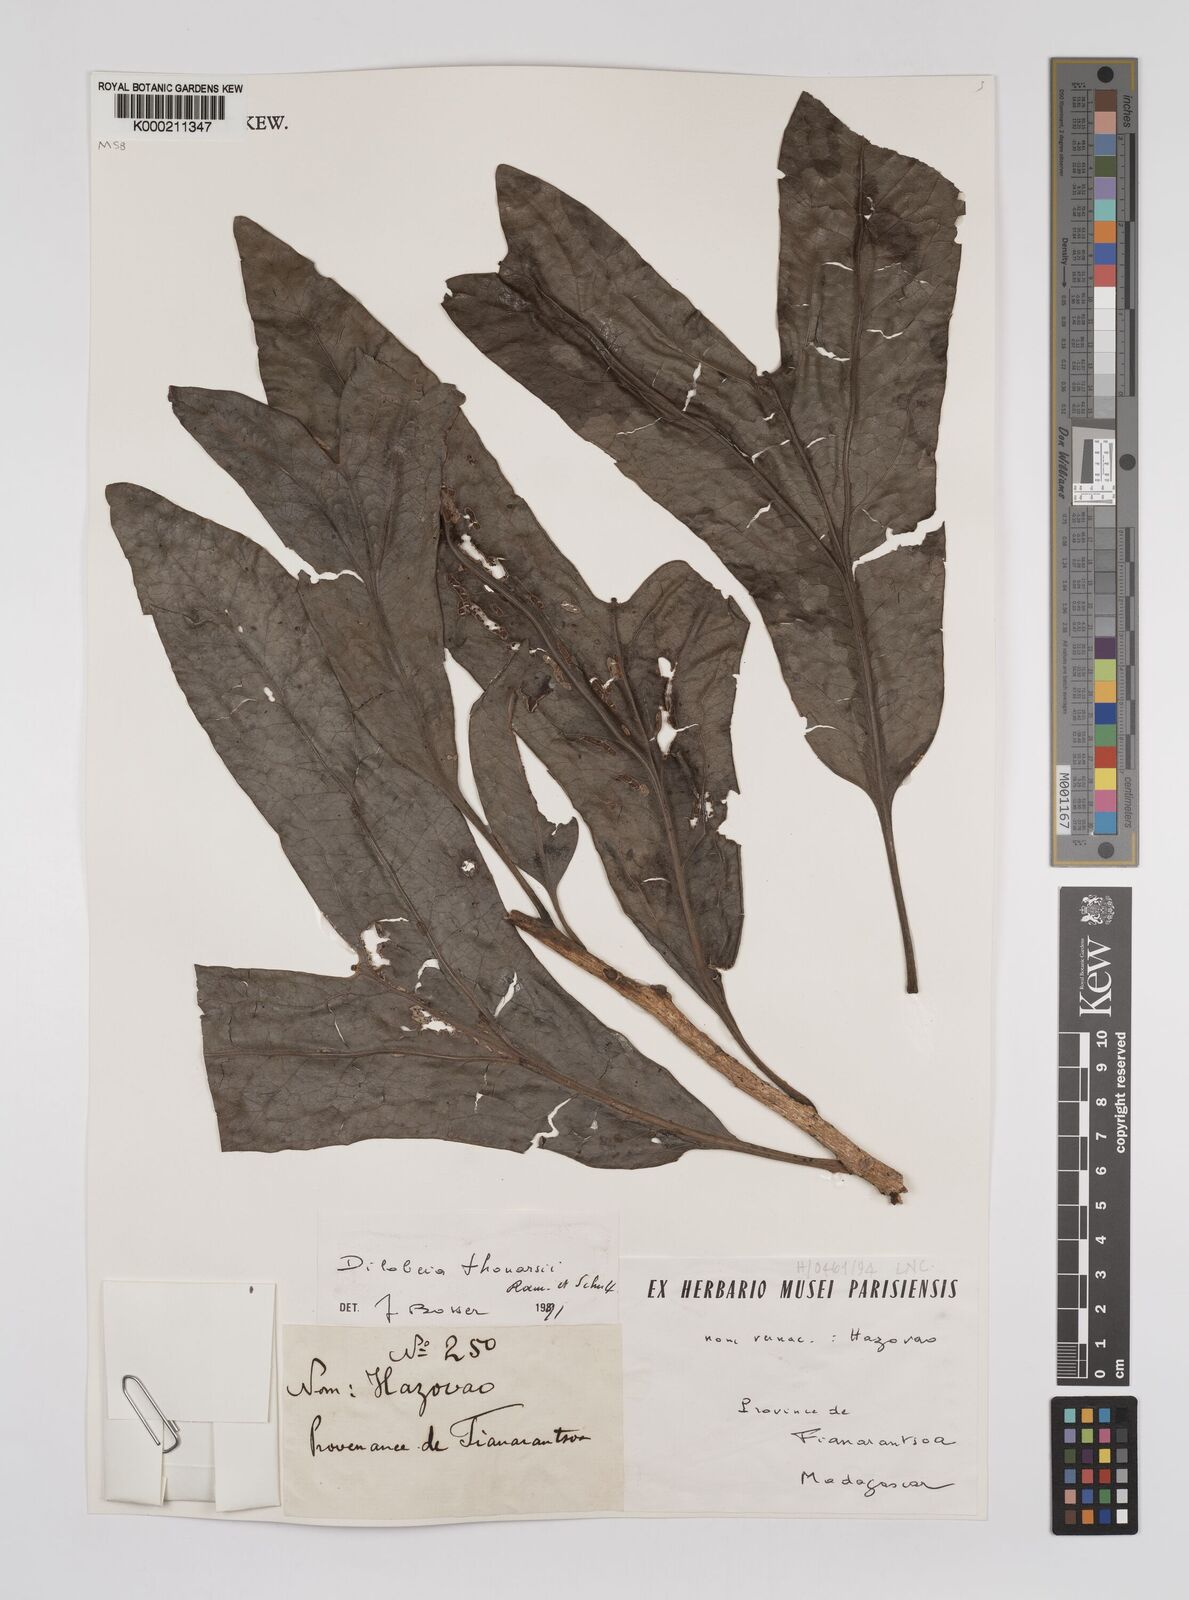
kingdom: Plantae
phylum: Tracheophyta
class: Magnoliopsida
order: Proteales
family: Proteaceae
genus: Dilobeia
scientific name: Dilobeia thouarsii
